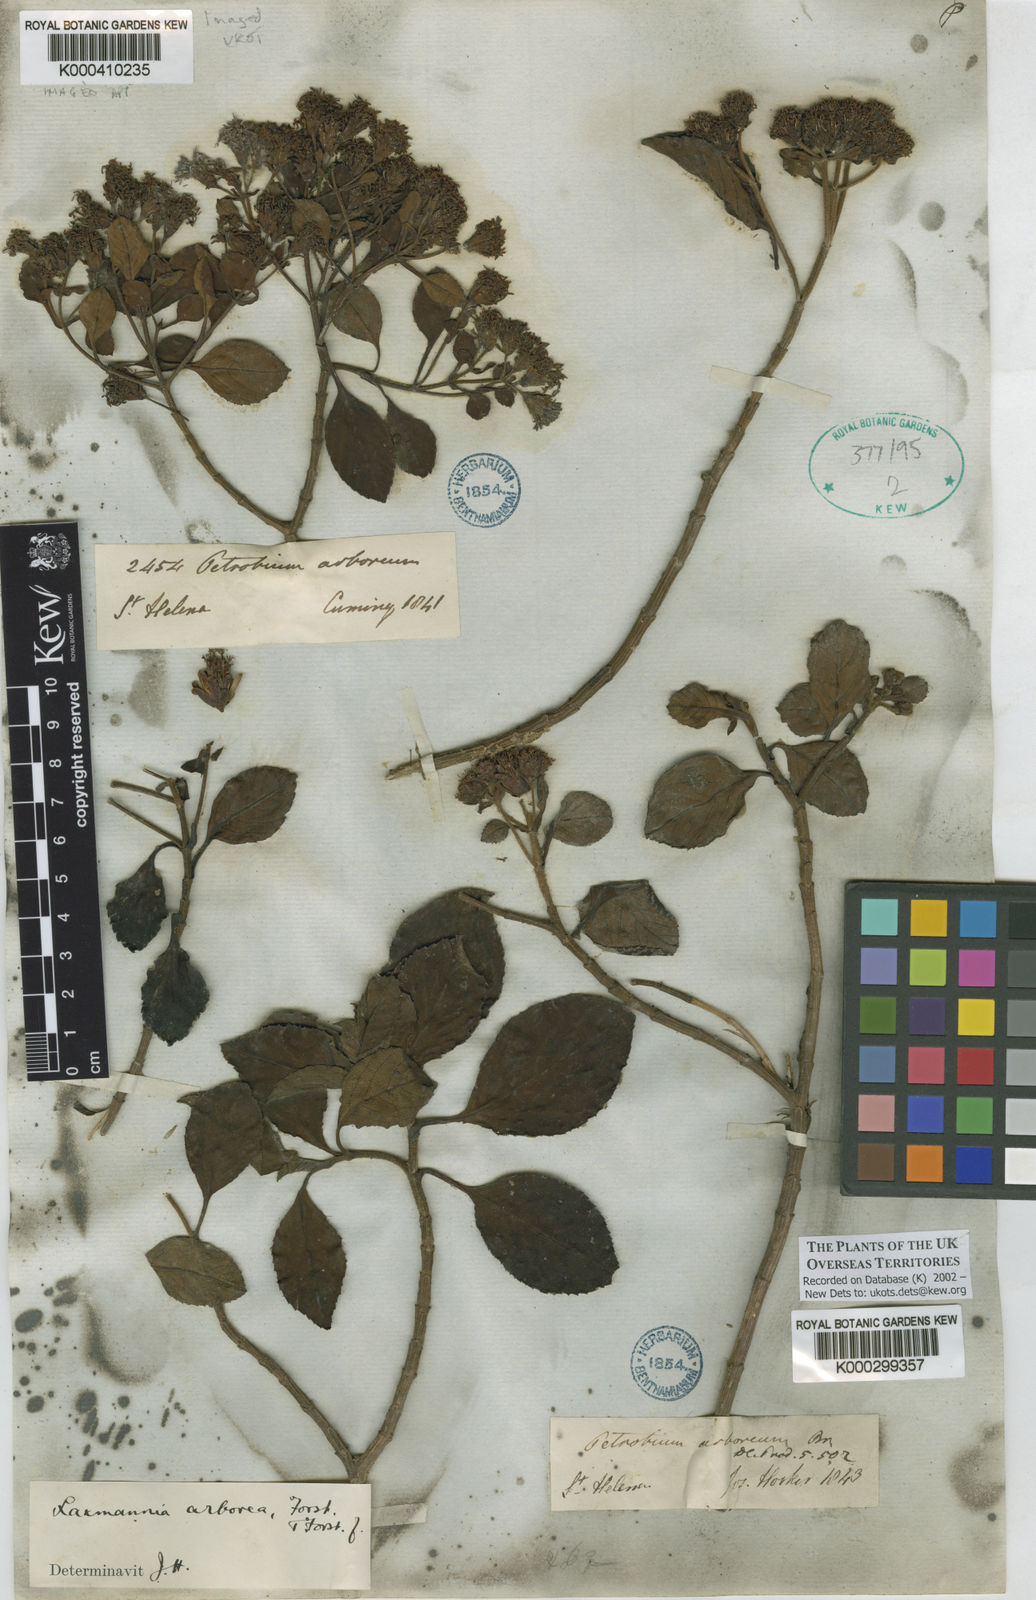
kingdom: Plantae
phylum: Tracheophyta
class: Magnoliopsida
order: Asterales
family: Asteraceae
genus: Petrobium
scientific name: Petrobium
